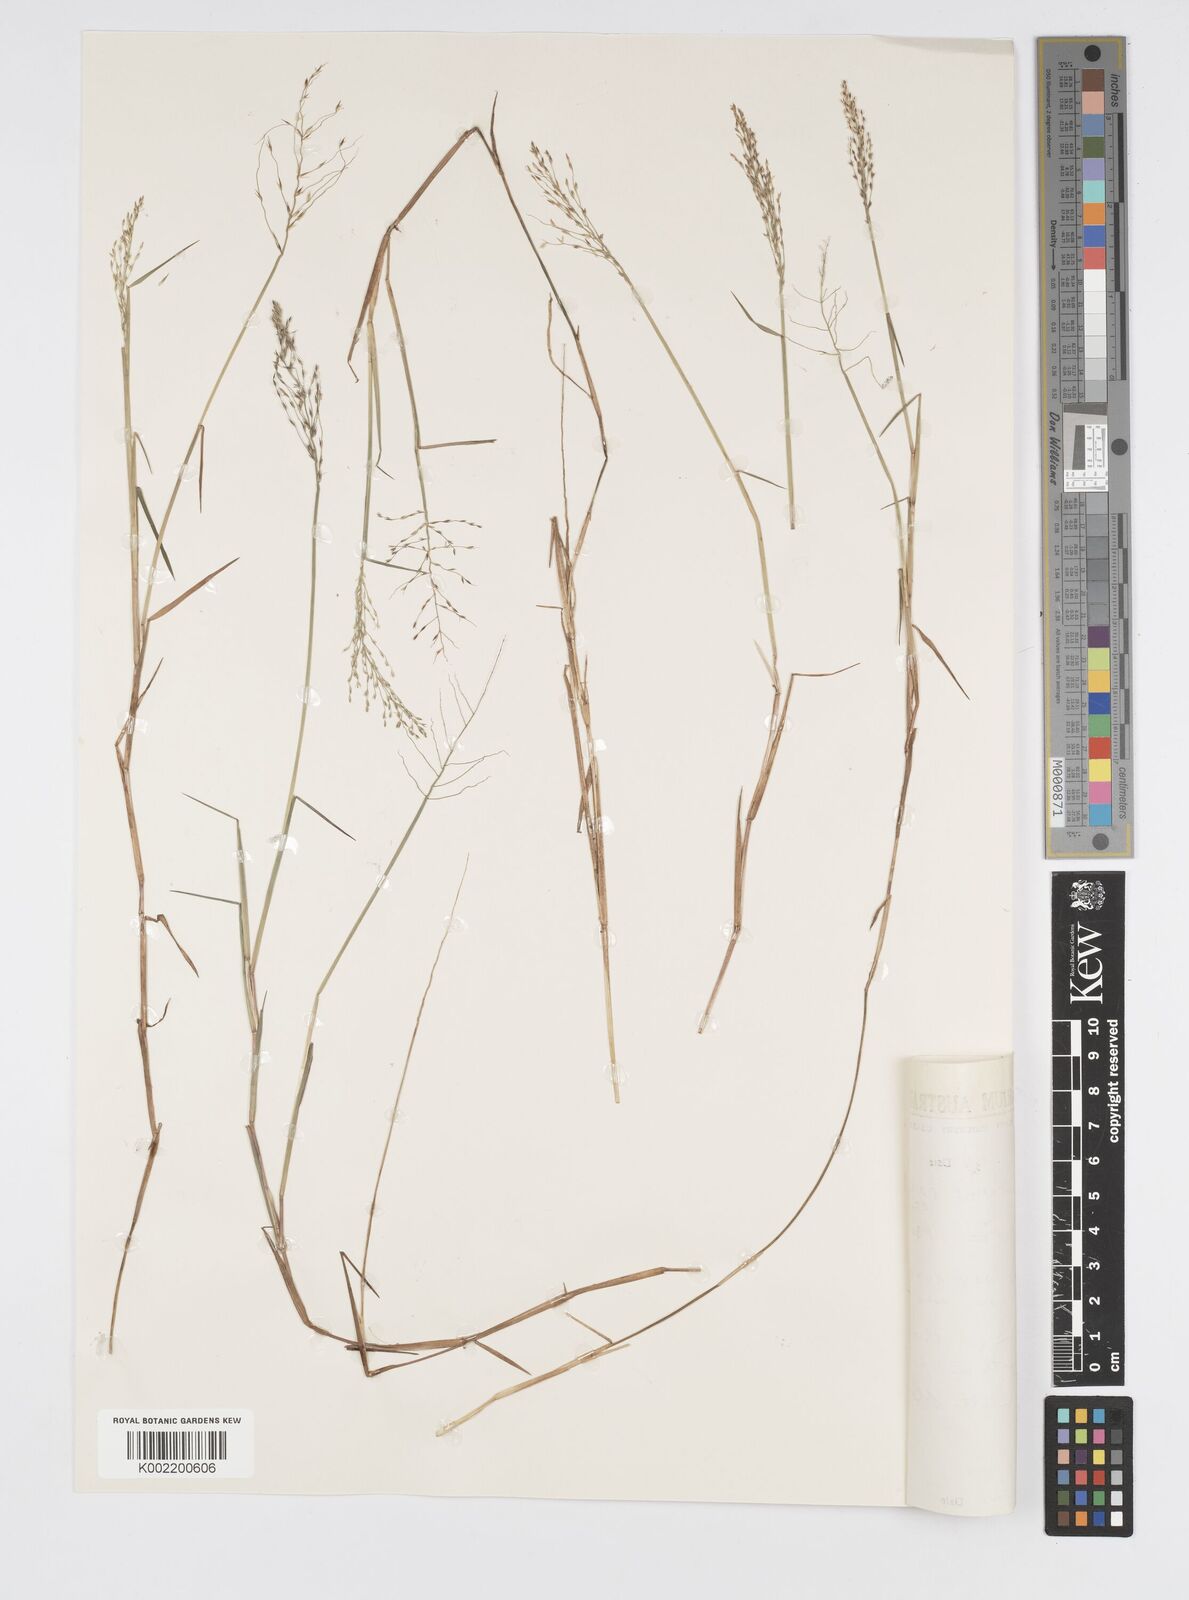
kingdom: Plantae
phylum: Tracheophyta
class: Liliopsida
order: Poales
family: Poaceae
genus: Pseudoraphis
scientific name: Pseudoraphis
